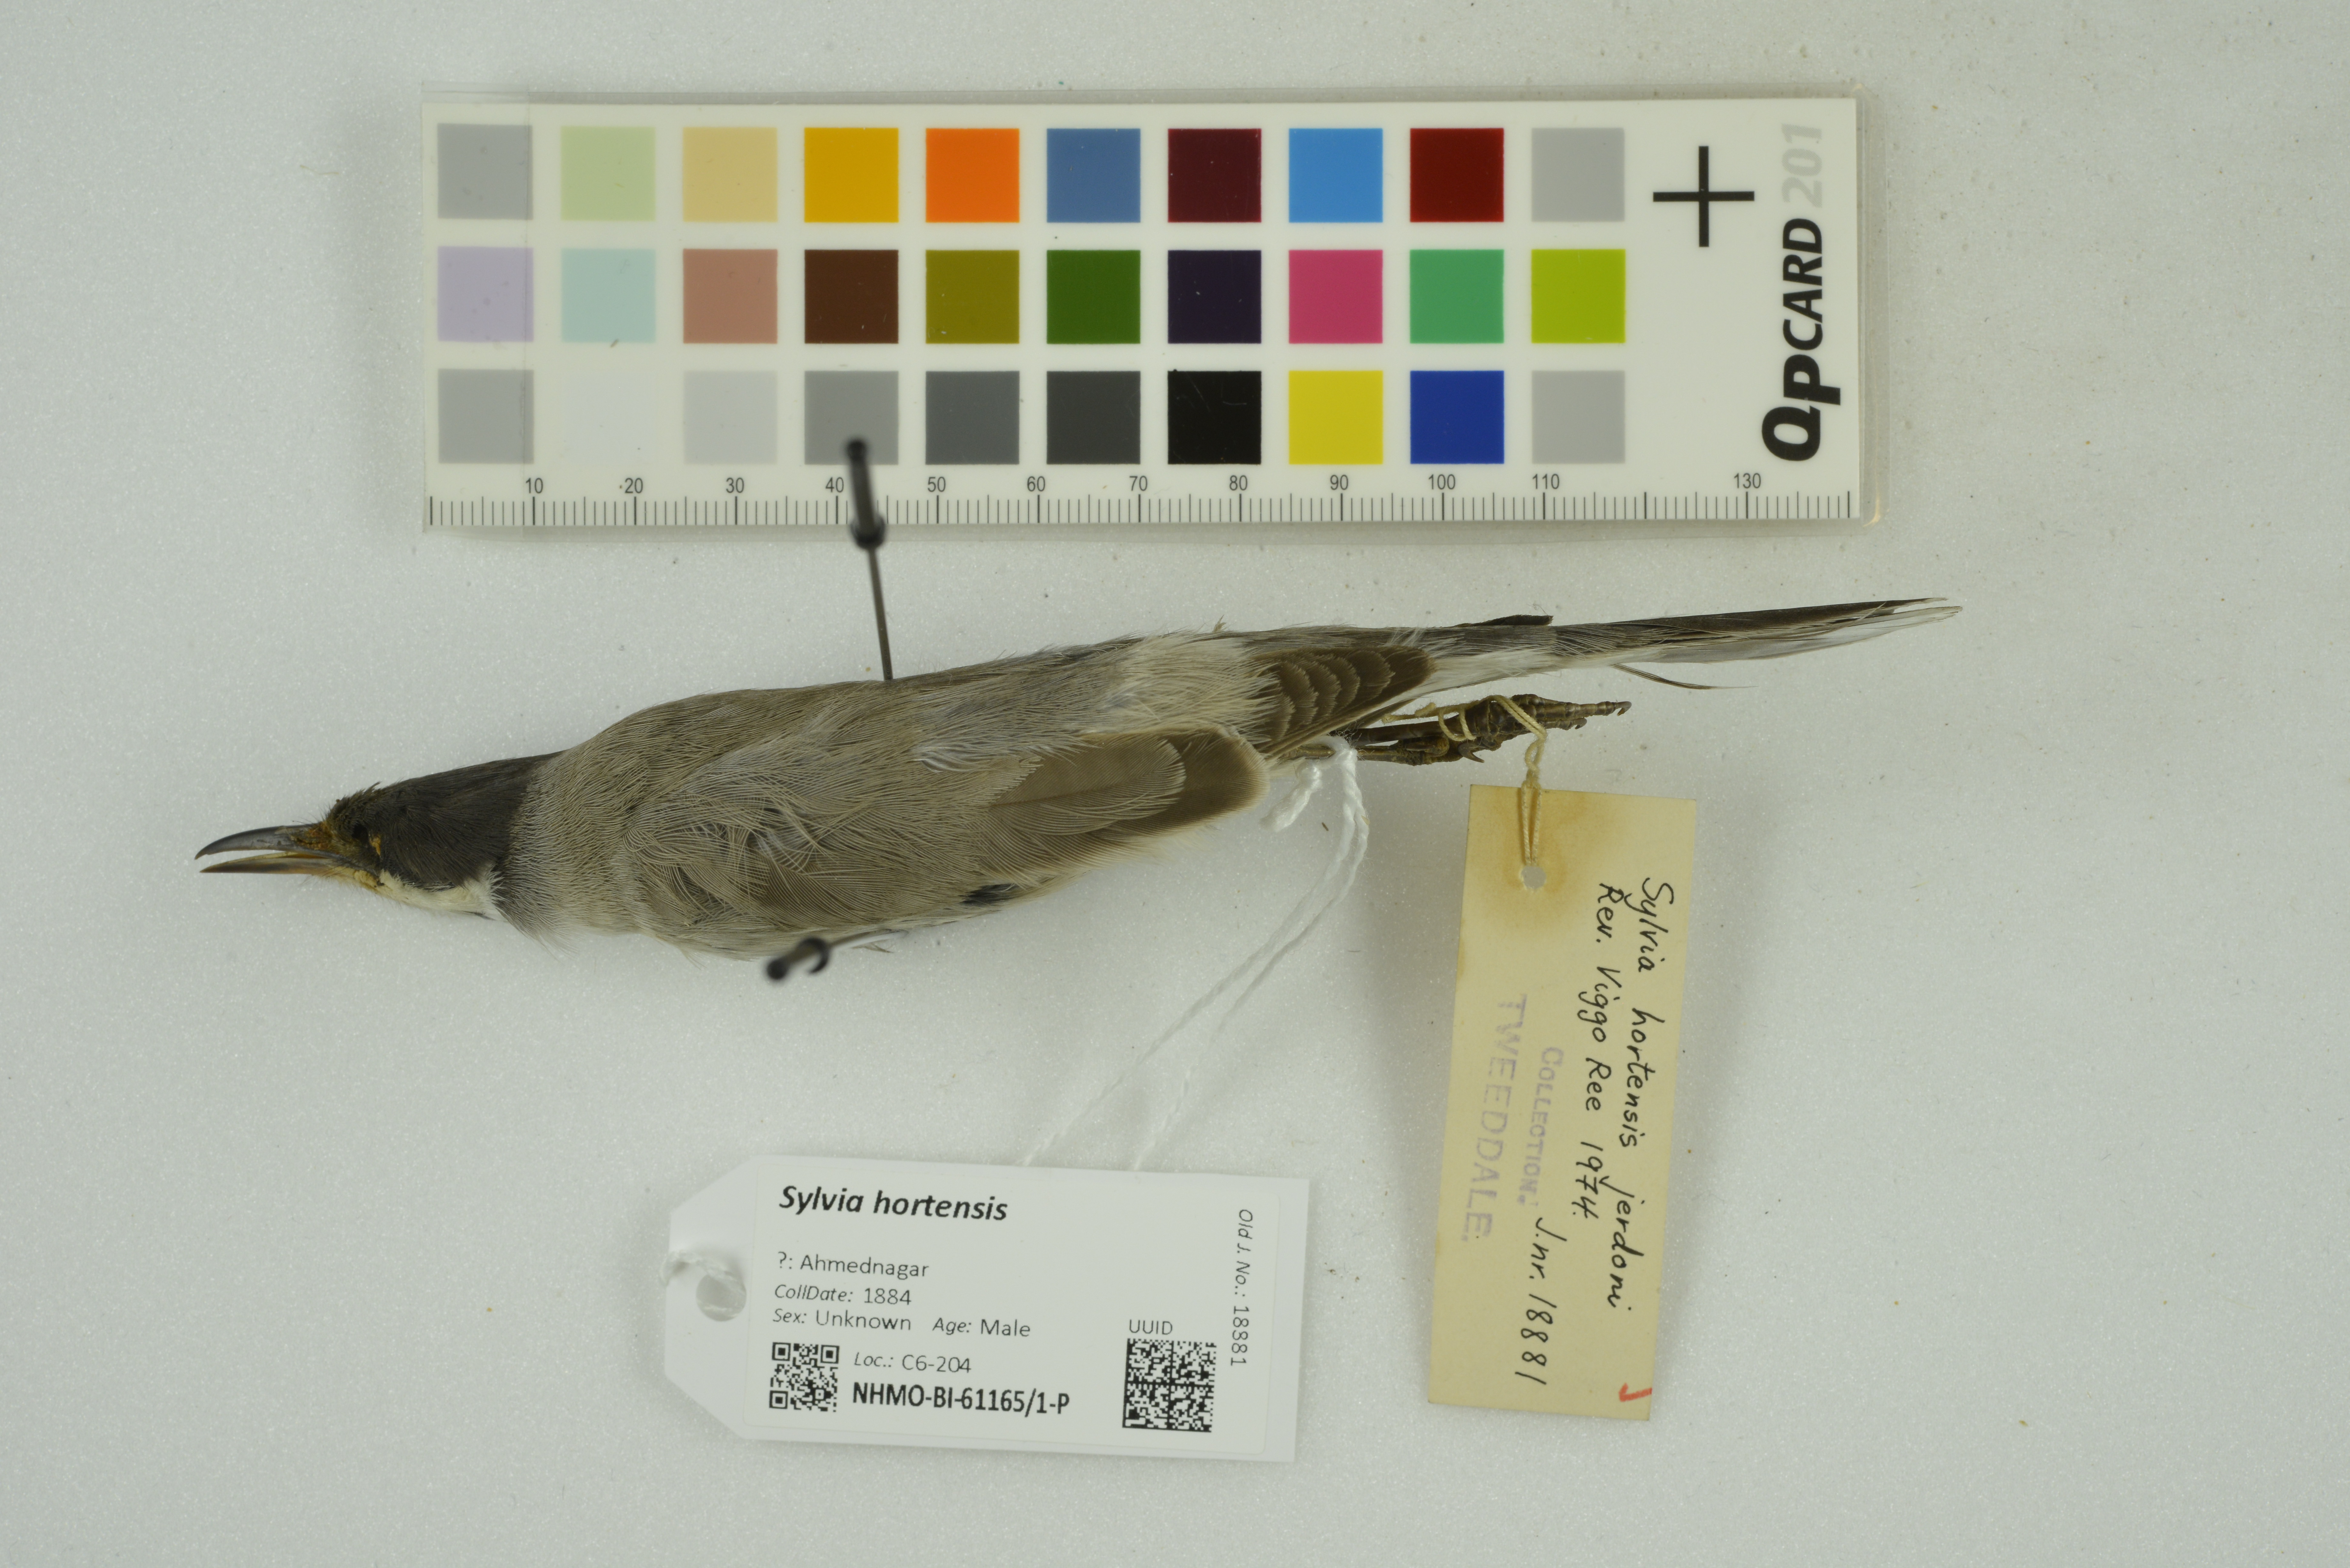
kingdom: Animalia
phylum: Chordata
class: Aves
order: Passeriformes
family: Sylviidae
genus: Sylvia
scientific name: Sylvia hortensis
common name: Orphean warbler
